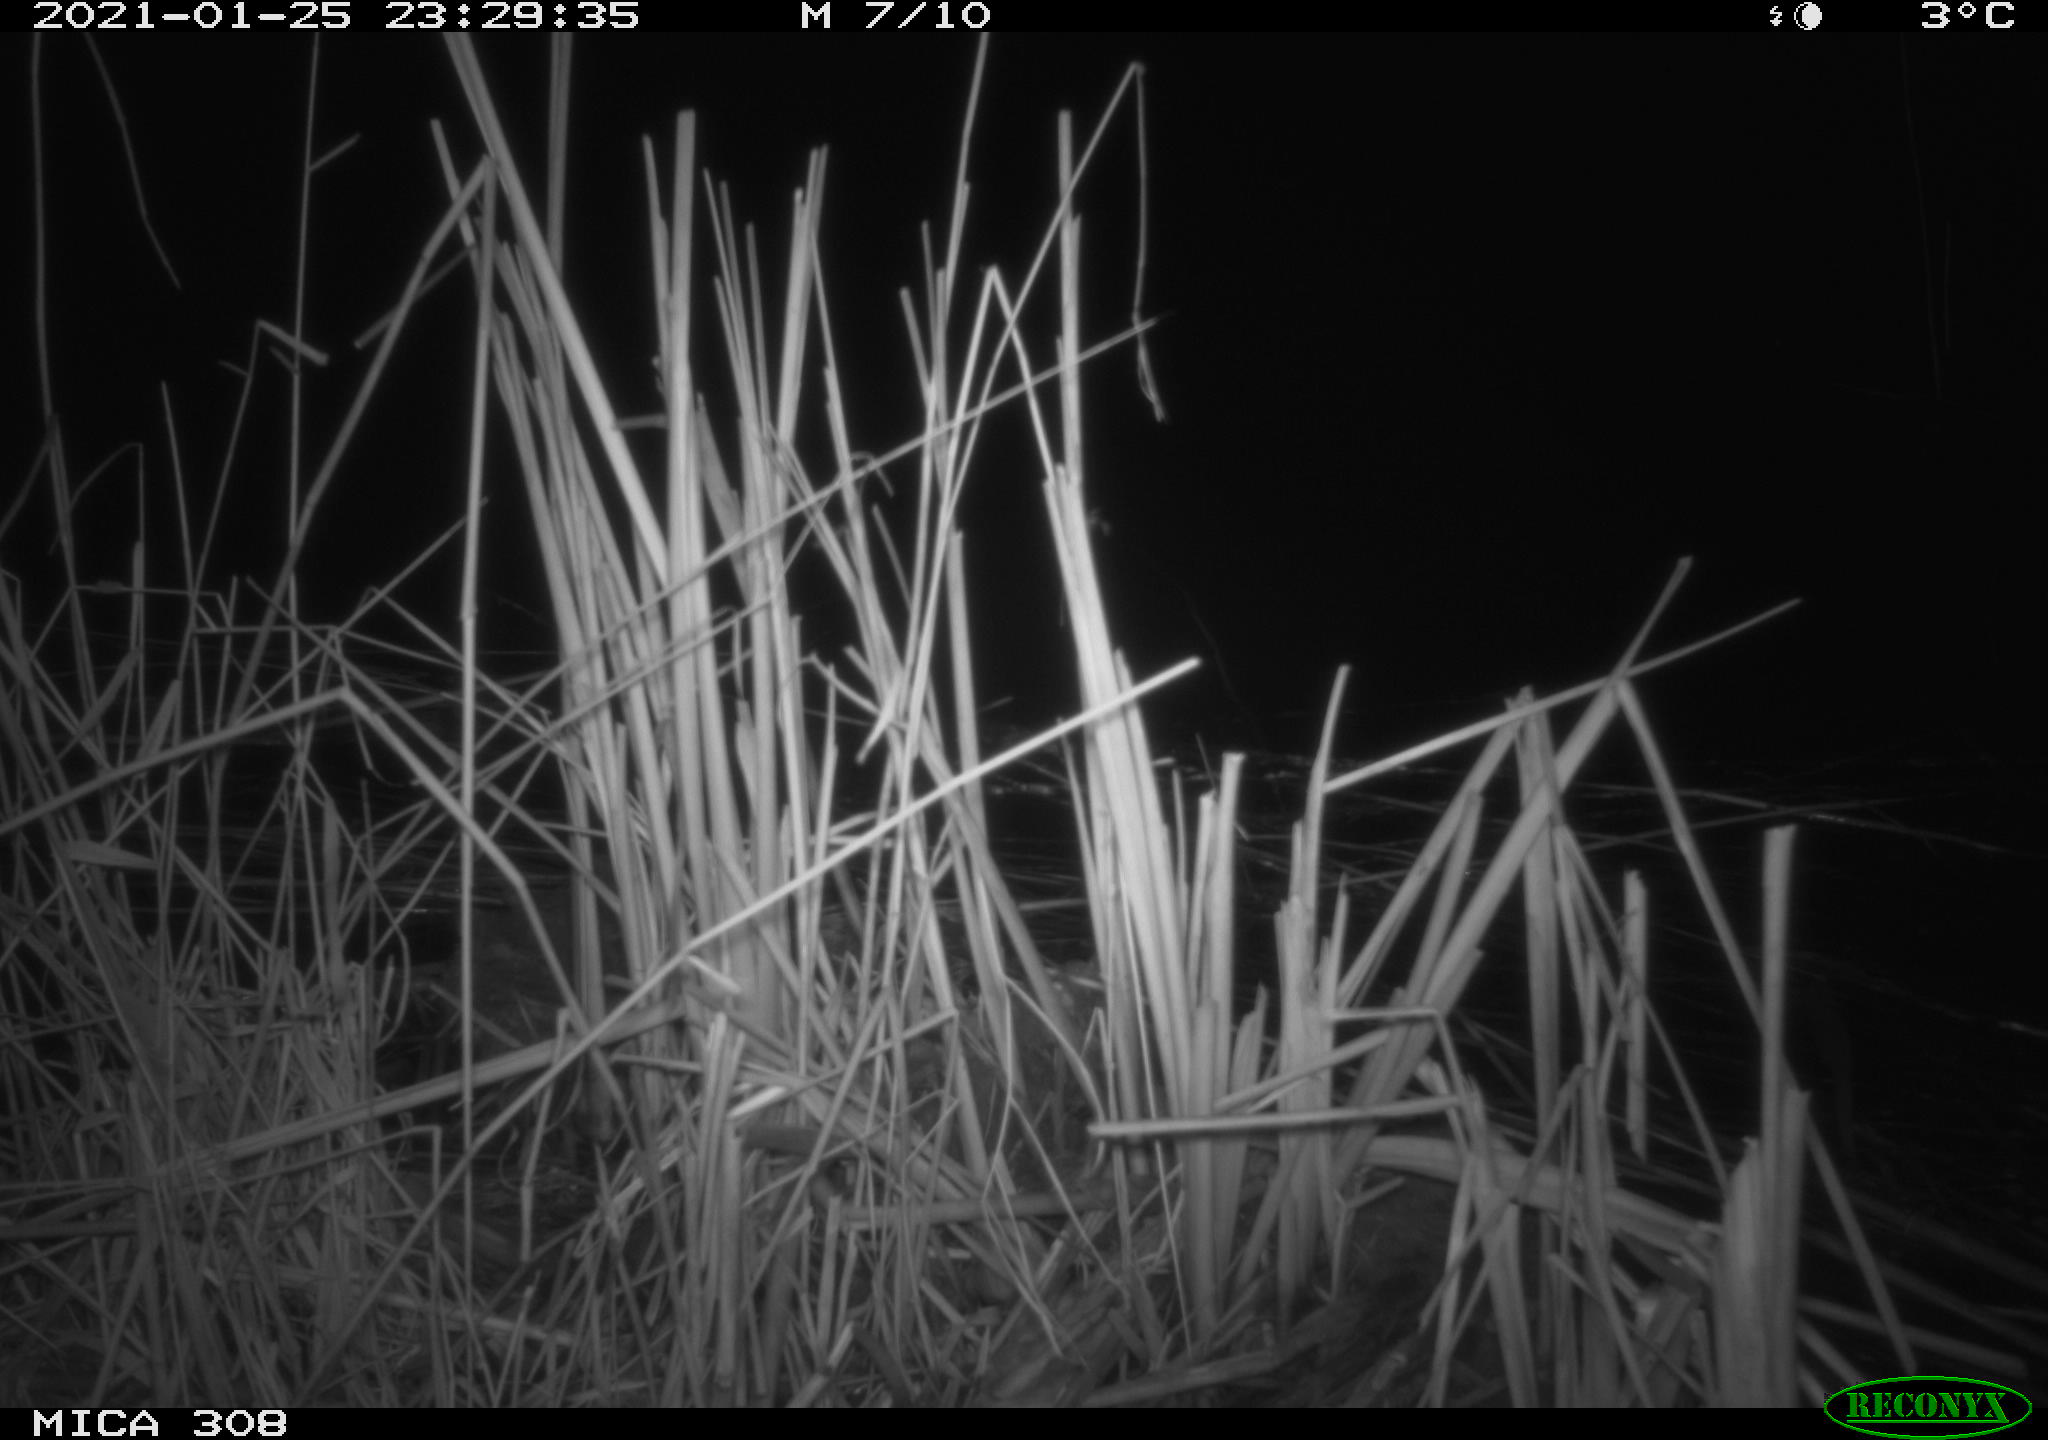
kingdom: Animalia
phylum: Chordata
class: Aves
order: Gruiformes
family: Rallidae
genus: Gallinula
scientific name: Gallinula chloropus
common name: Common moorhen
